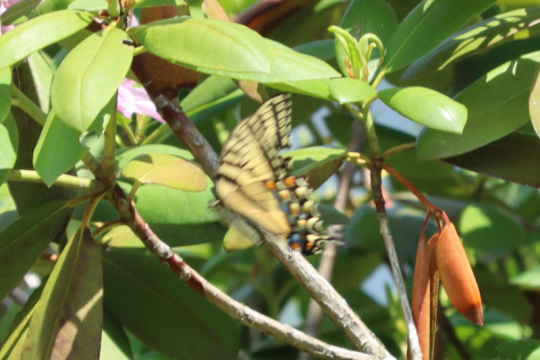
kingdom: Animalia
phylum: Arthropoda
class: Insecta
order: Lepidoptera
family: Papilionidae
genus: Pterourus
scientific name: Pterourus canadensis
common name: Canadian Tiger Swallowtail
